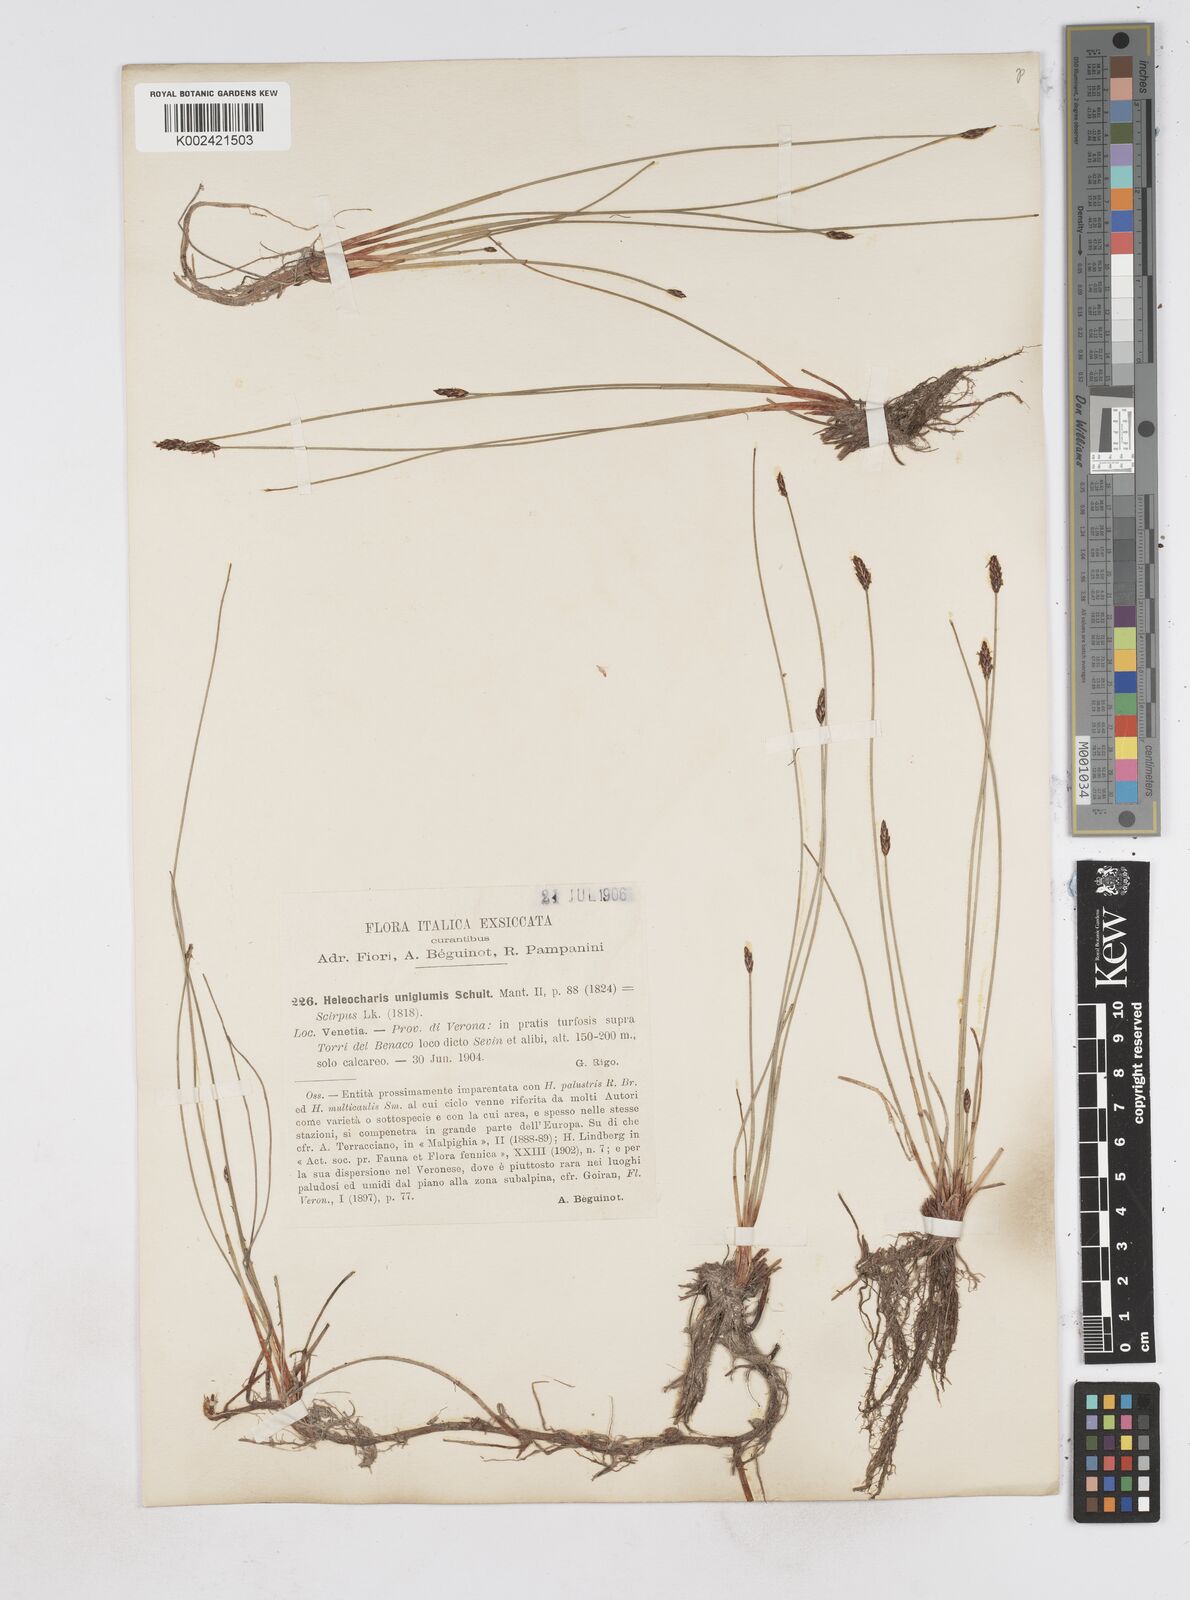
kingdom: Plantae
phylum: Tracheophyta
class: Liliopsida
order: Poales
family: Cyperaceae
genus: Eleocharis
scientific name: Eleocharis uniglumis
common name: Slender spike-rush
